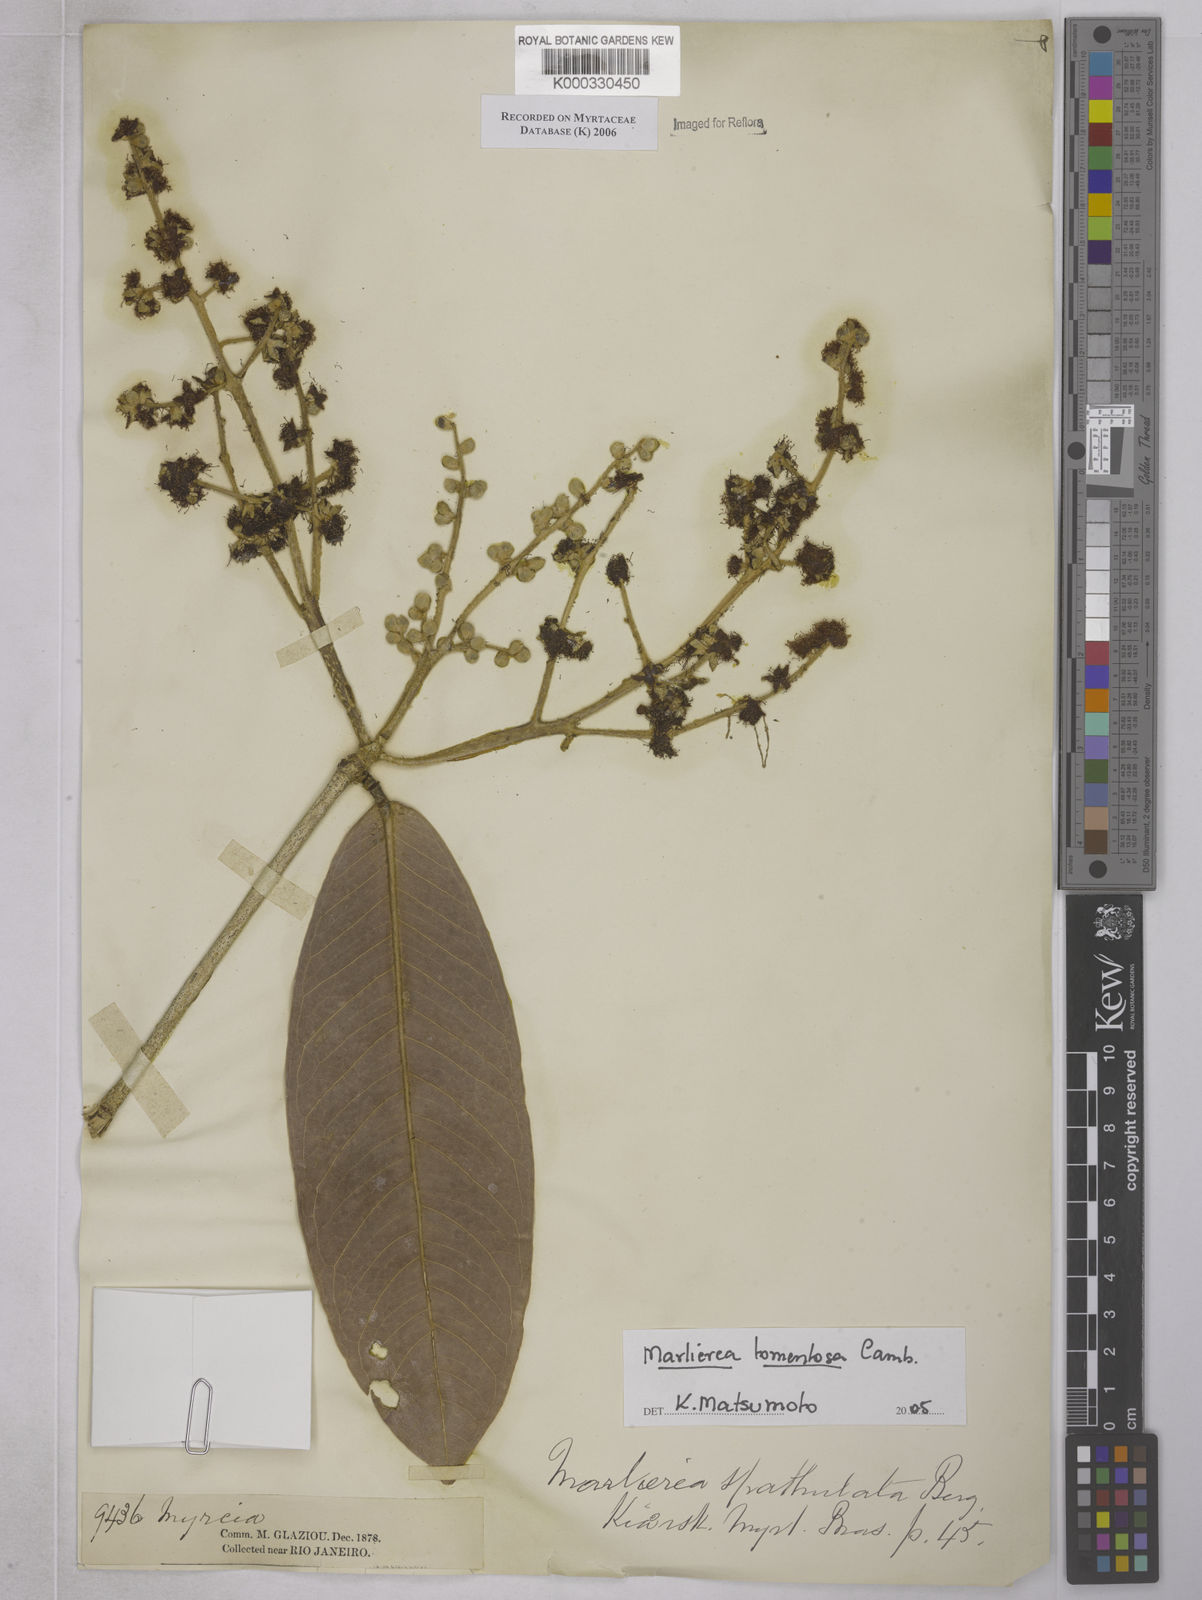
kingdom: Plantae
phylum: Tracheophyta
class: Magnoliopsida
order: Myrtales
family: Myrtaceae
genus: Myrcia
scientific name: Myrcia neotomentosa
